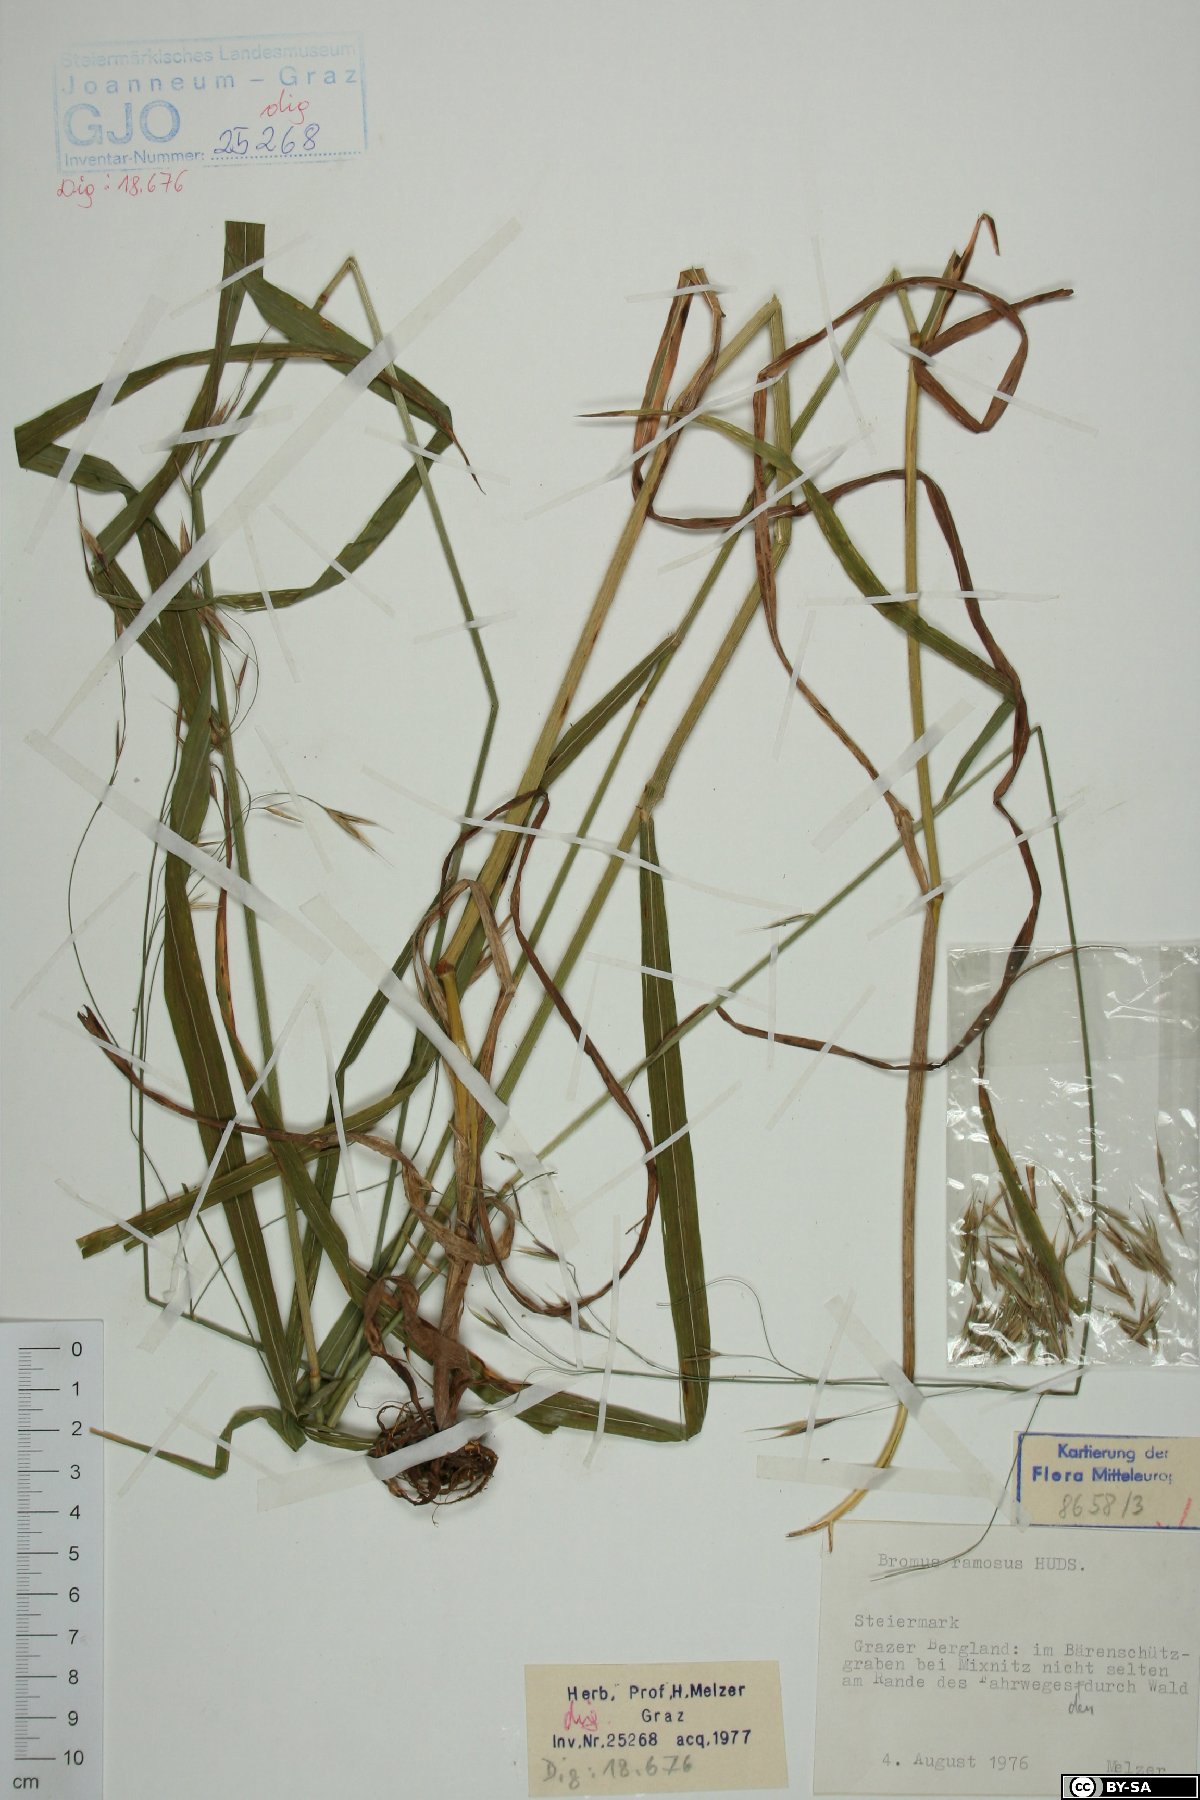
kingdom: Plantae
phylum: Tracheophyta
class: Liliopsida
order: Poales
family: Poaceae
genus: Bromus
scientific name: Bromus ramosus
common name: Hairy brome
